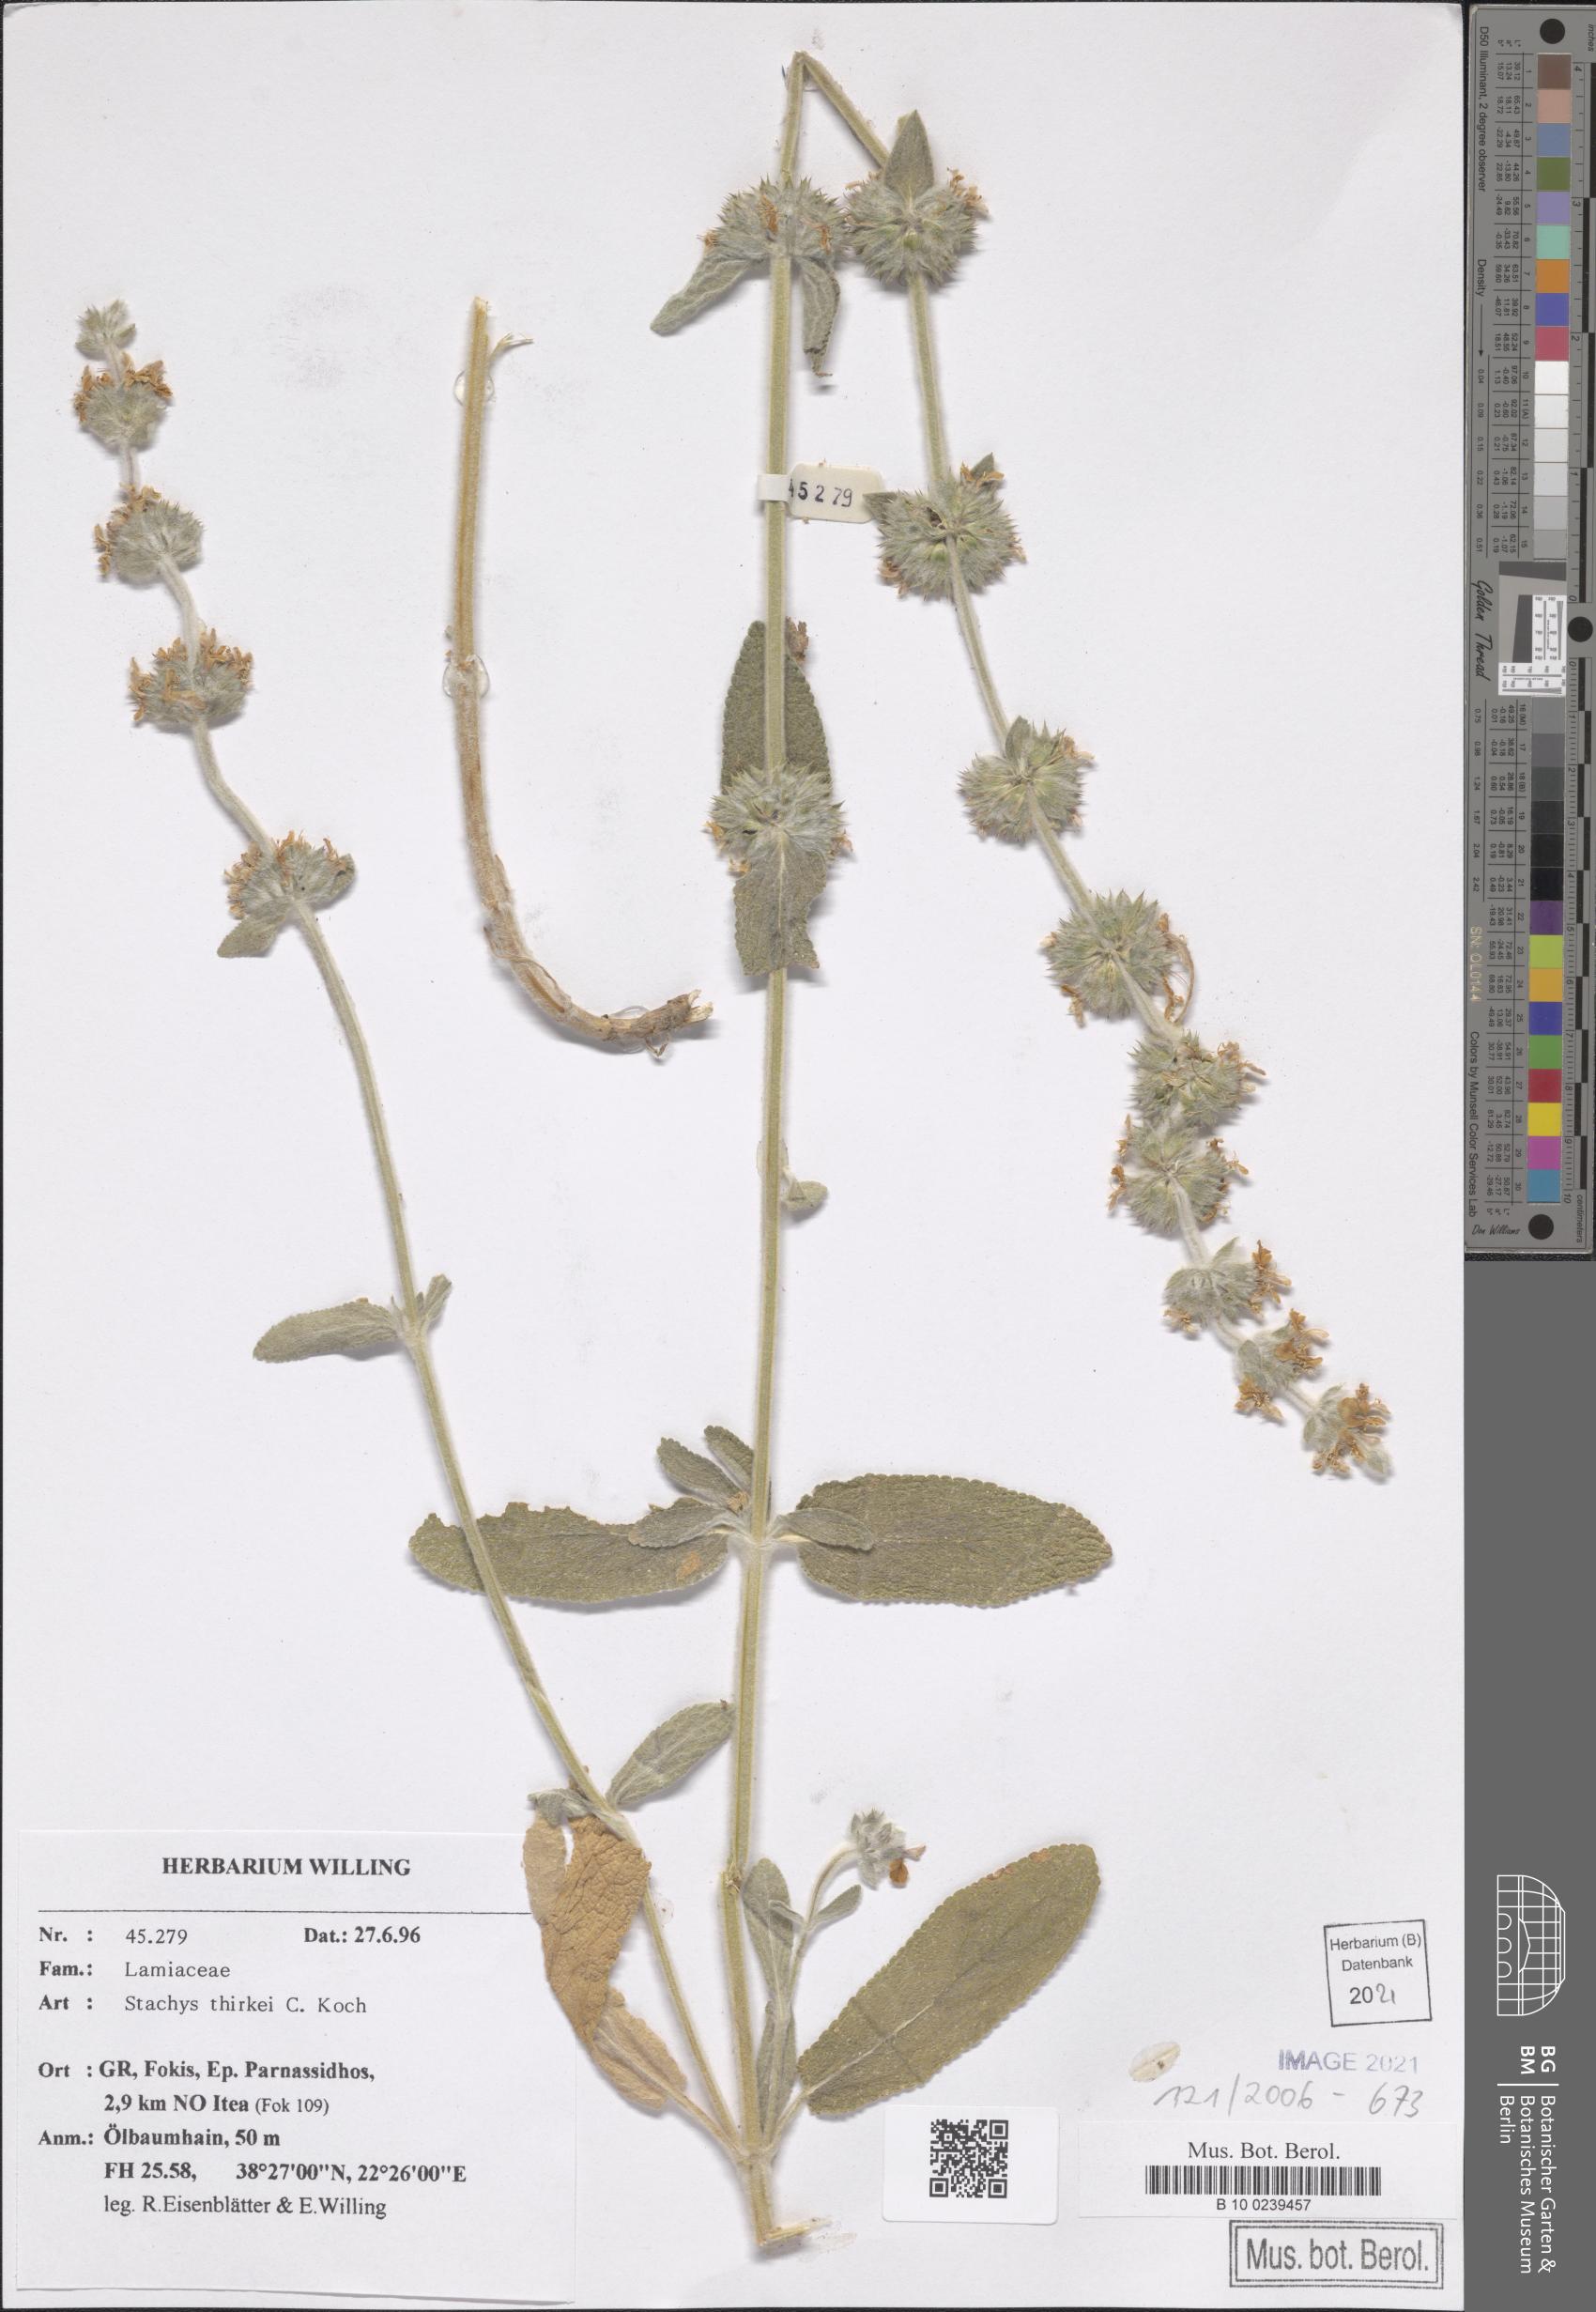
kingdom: Plantae
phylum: Tracheophyta
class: Magnoliopsida
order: Lamiales
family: Lamiaceae
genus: Stachys
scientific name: Stachys thirkei
